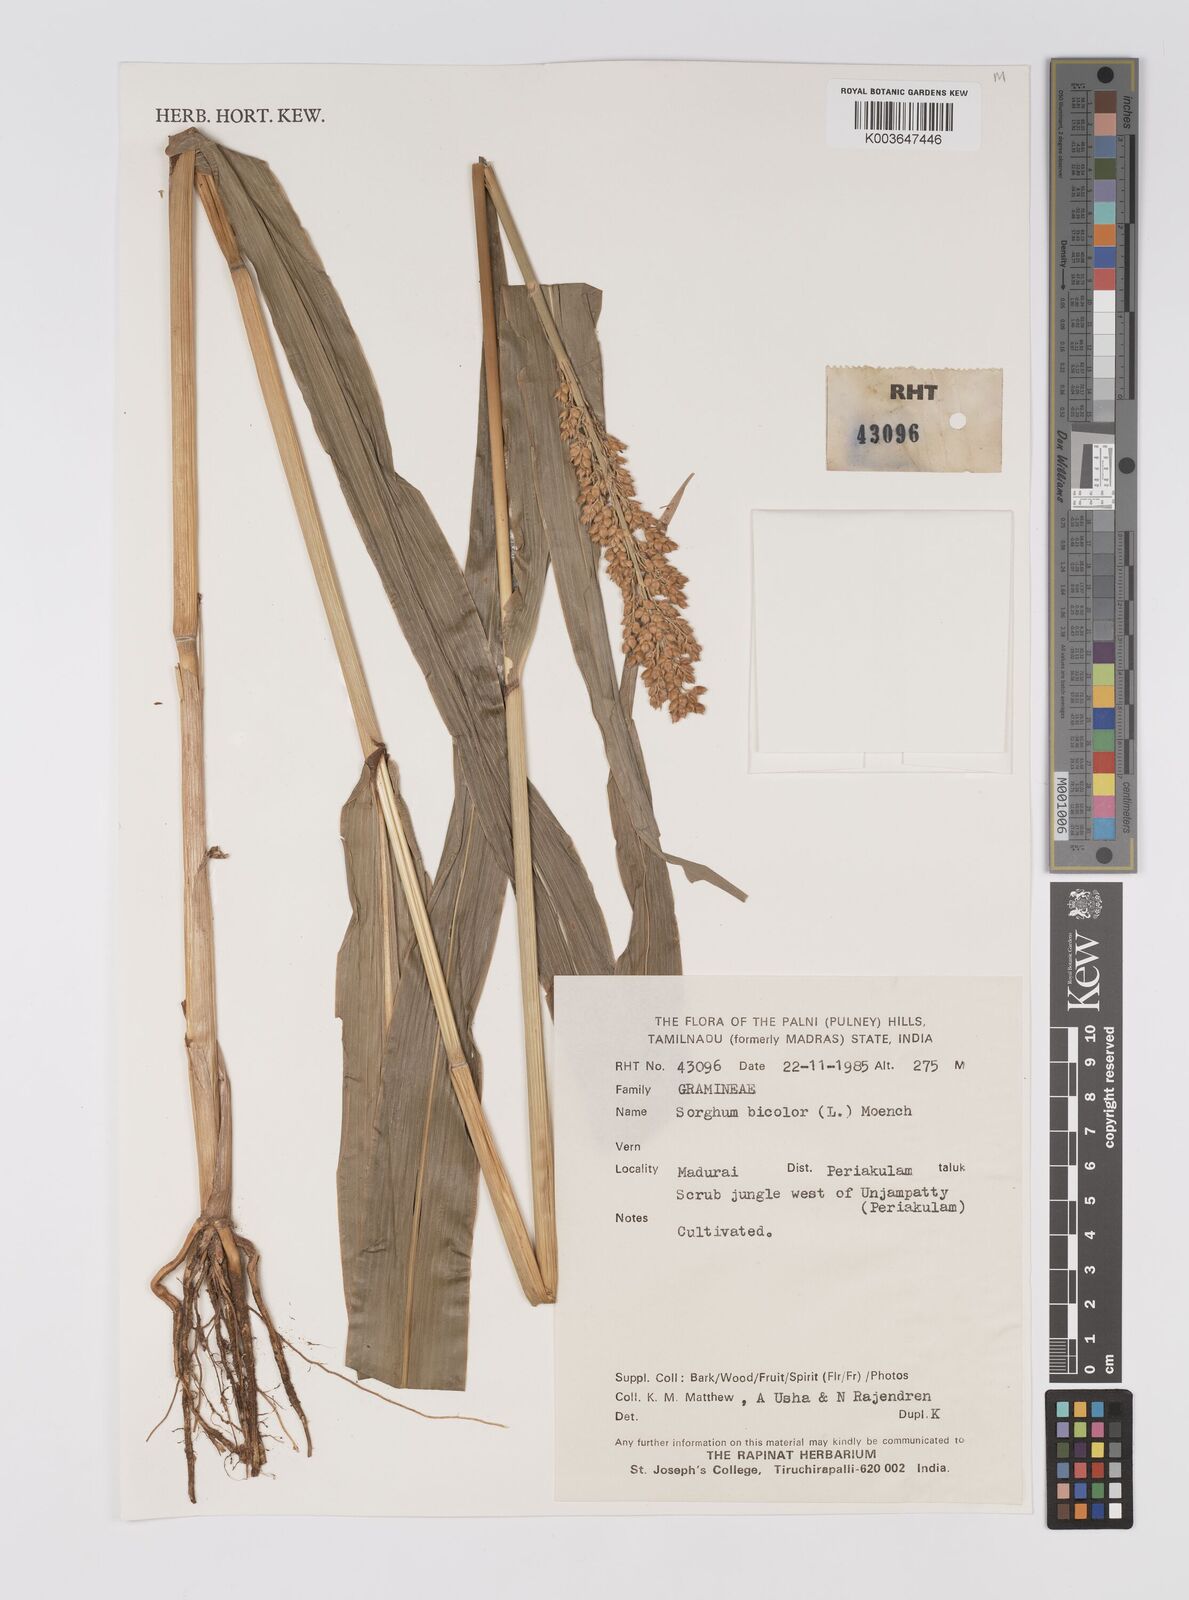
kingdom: Plantae
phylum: Tracheophyta
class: Liliopsida
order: Poales
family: Poaceae
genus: Hyparrhenia
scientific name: Hyparrhenia dichroa
